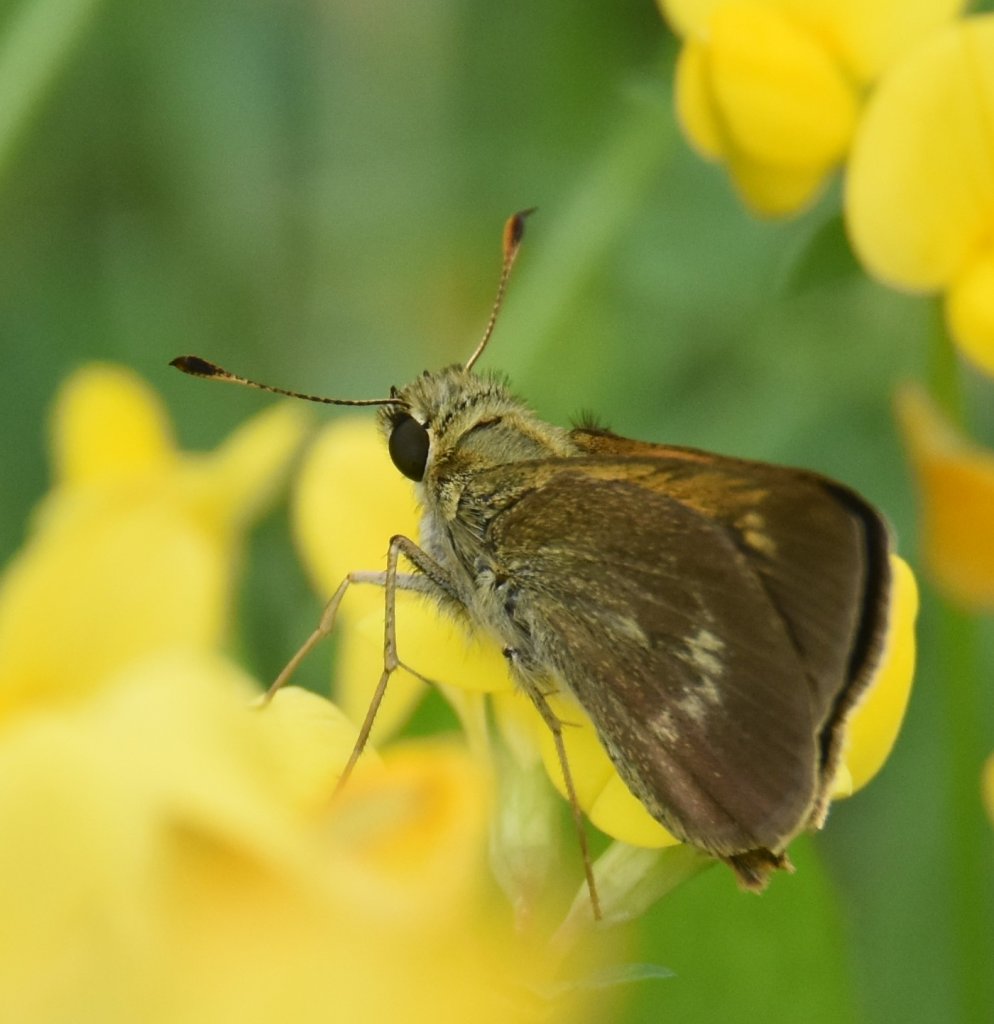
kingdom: Animalia
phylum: Arthropoda
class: Insecta
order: Lepidoptera
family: Hesperiidae
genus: Polites
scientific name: Polites egeremet
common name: Northern Broken-Dash
